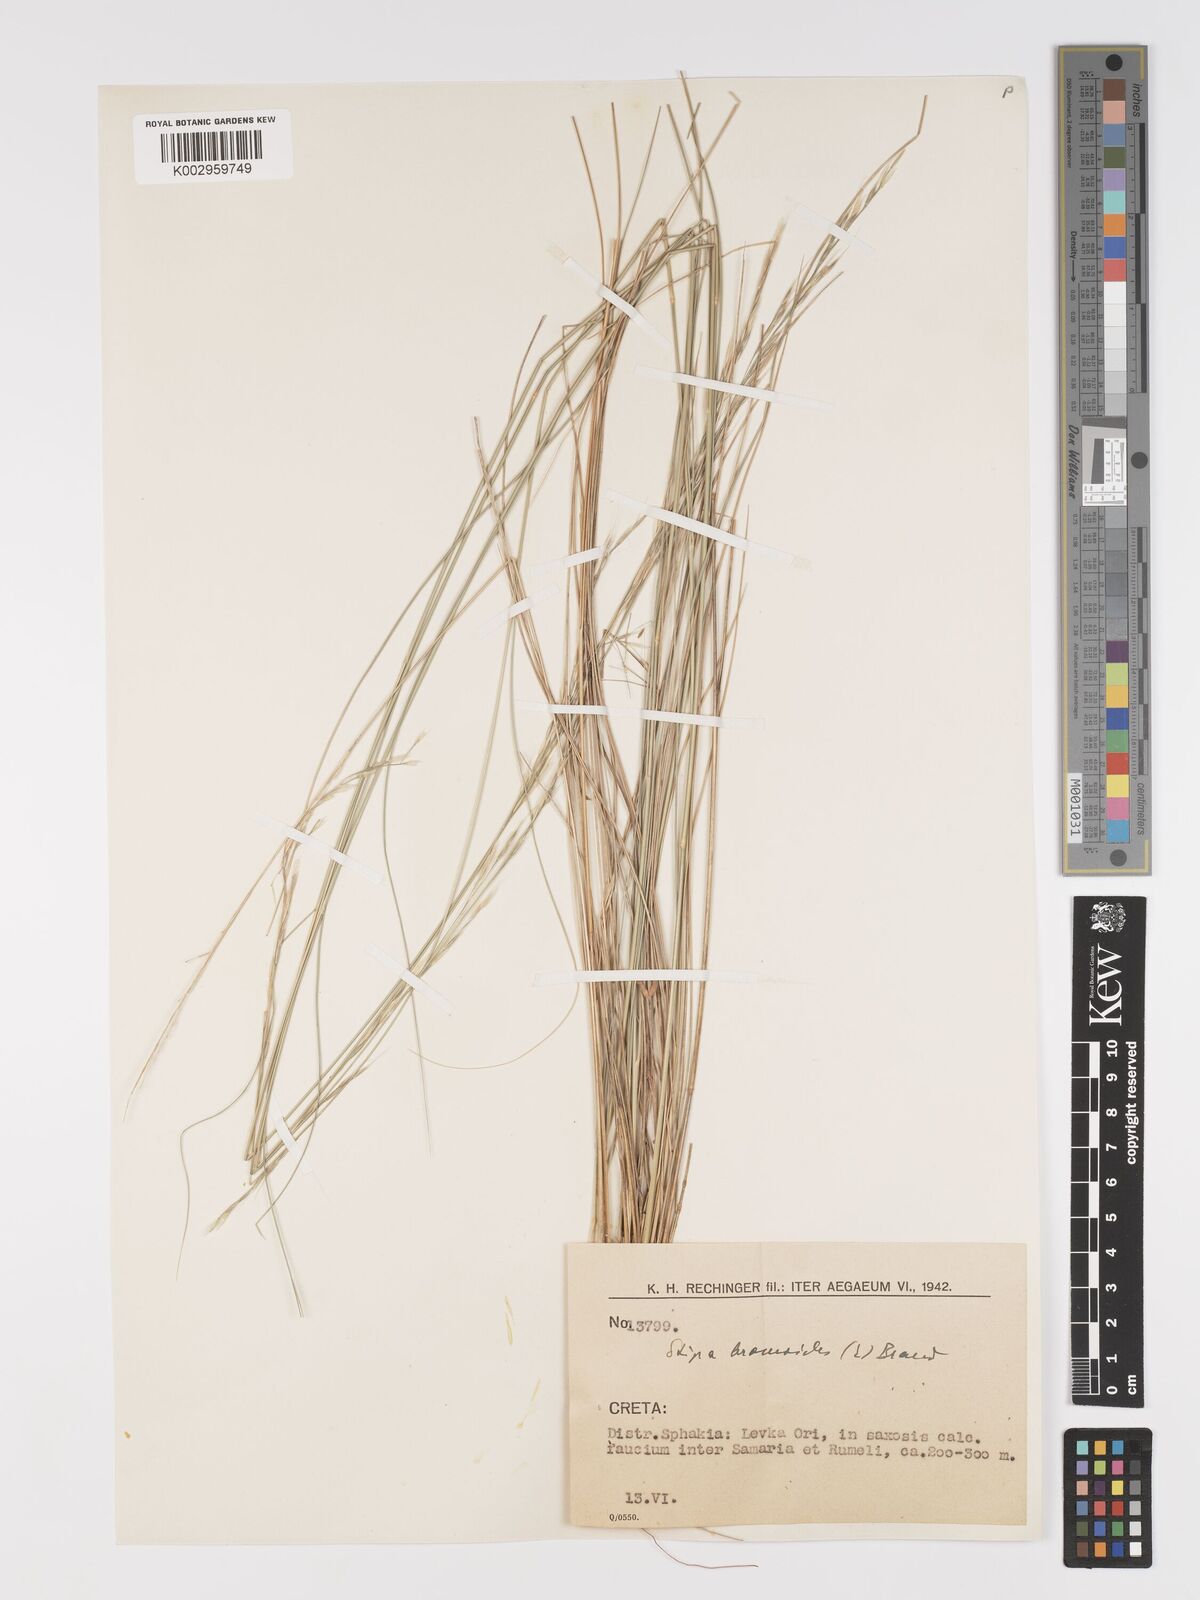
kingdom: Plantae
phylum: Tracheophyta
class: Liliopsida
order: Poales
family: Poaceae
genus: Achnatherum
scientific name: Achnatherum bromoides
